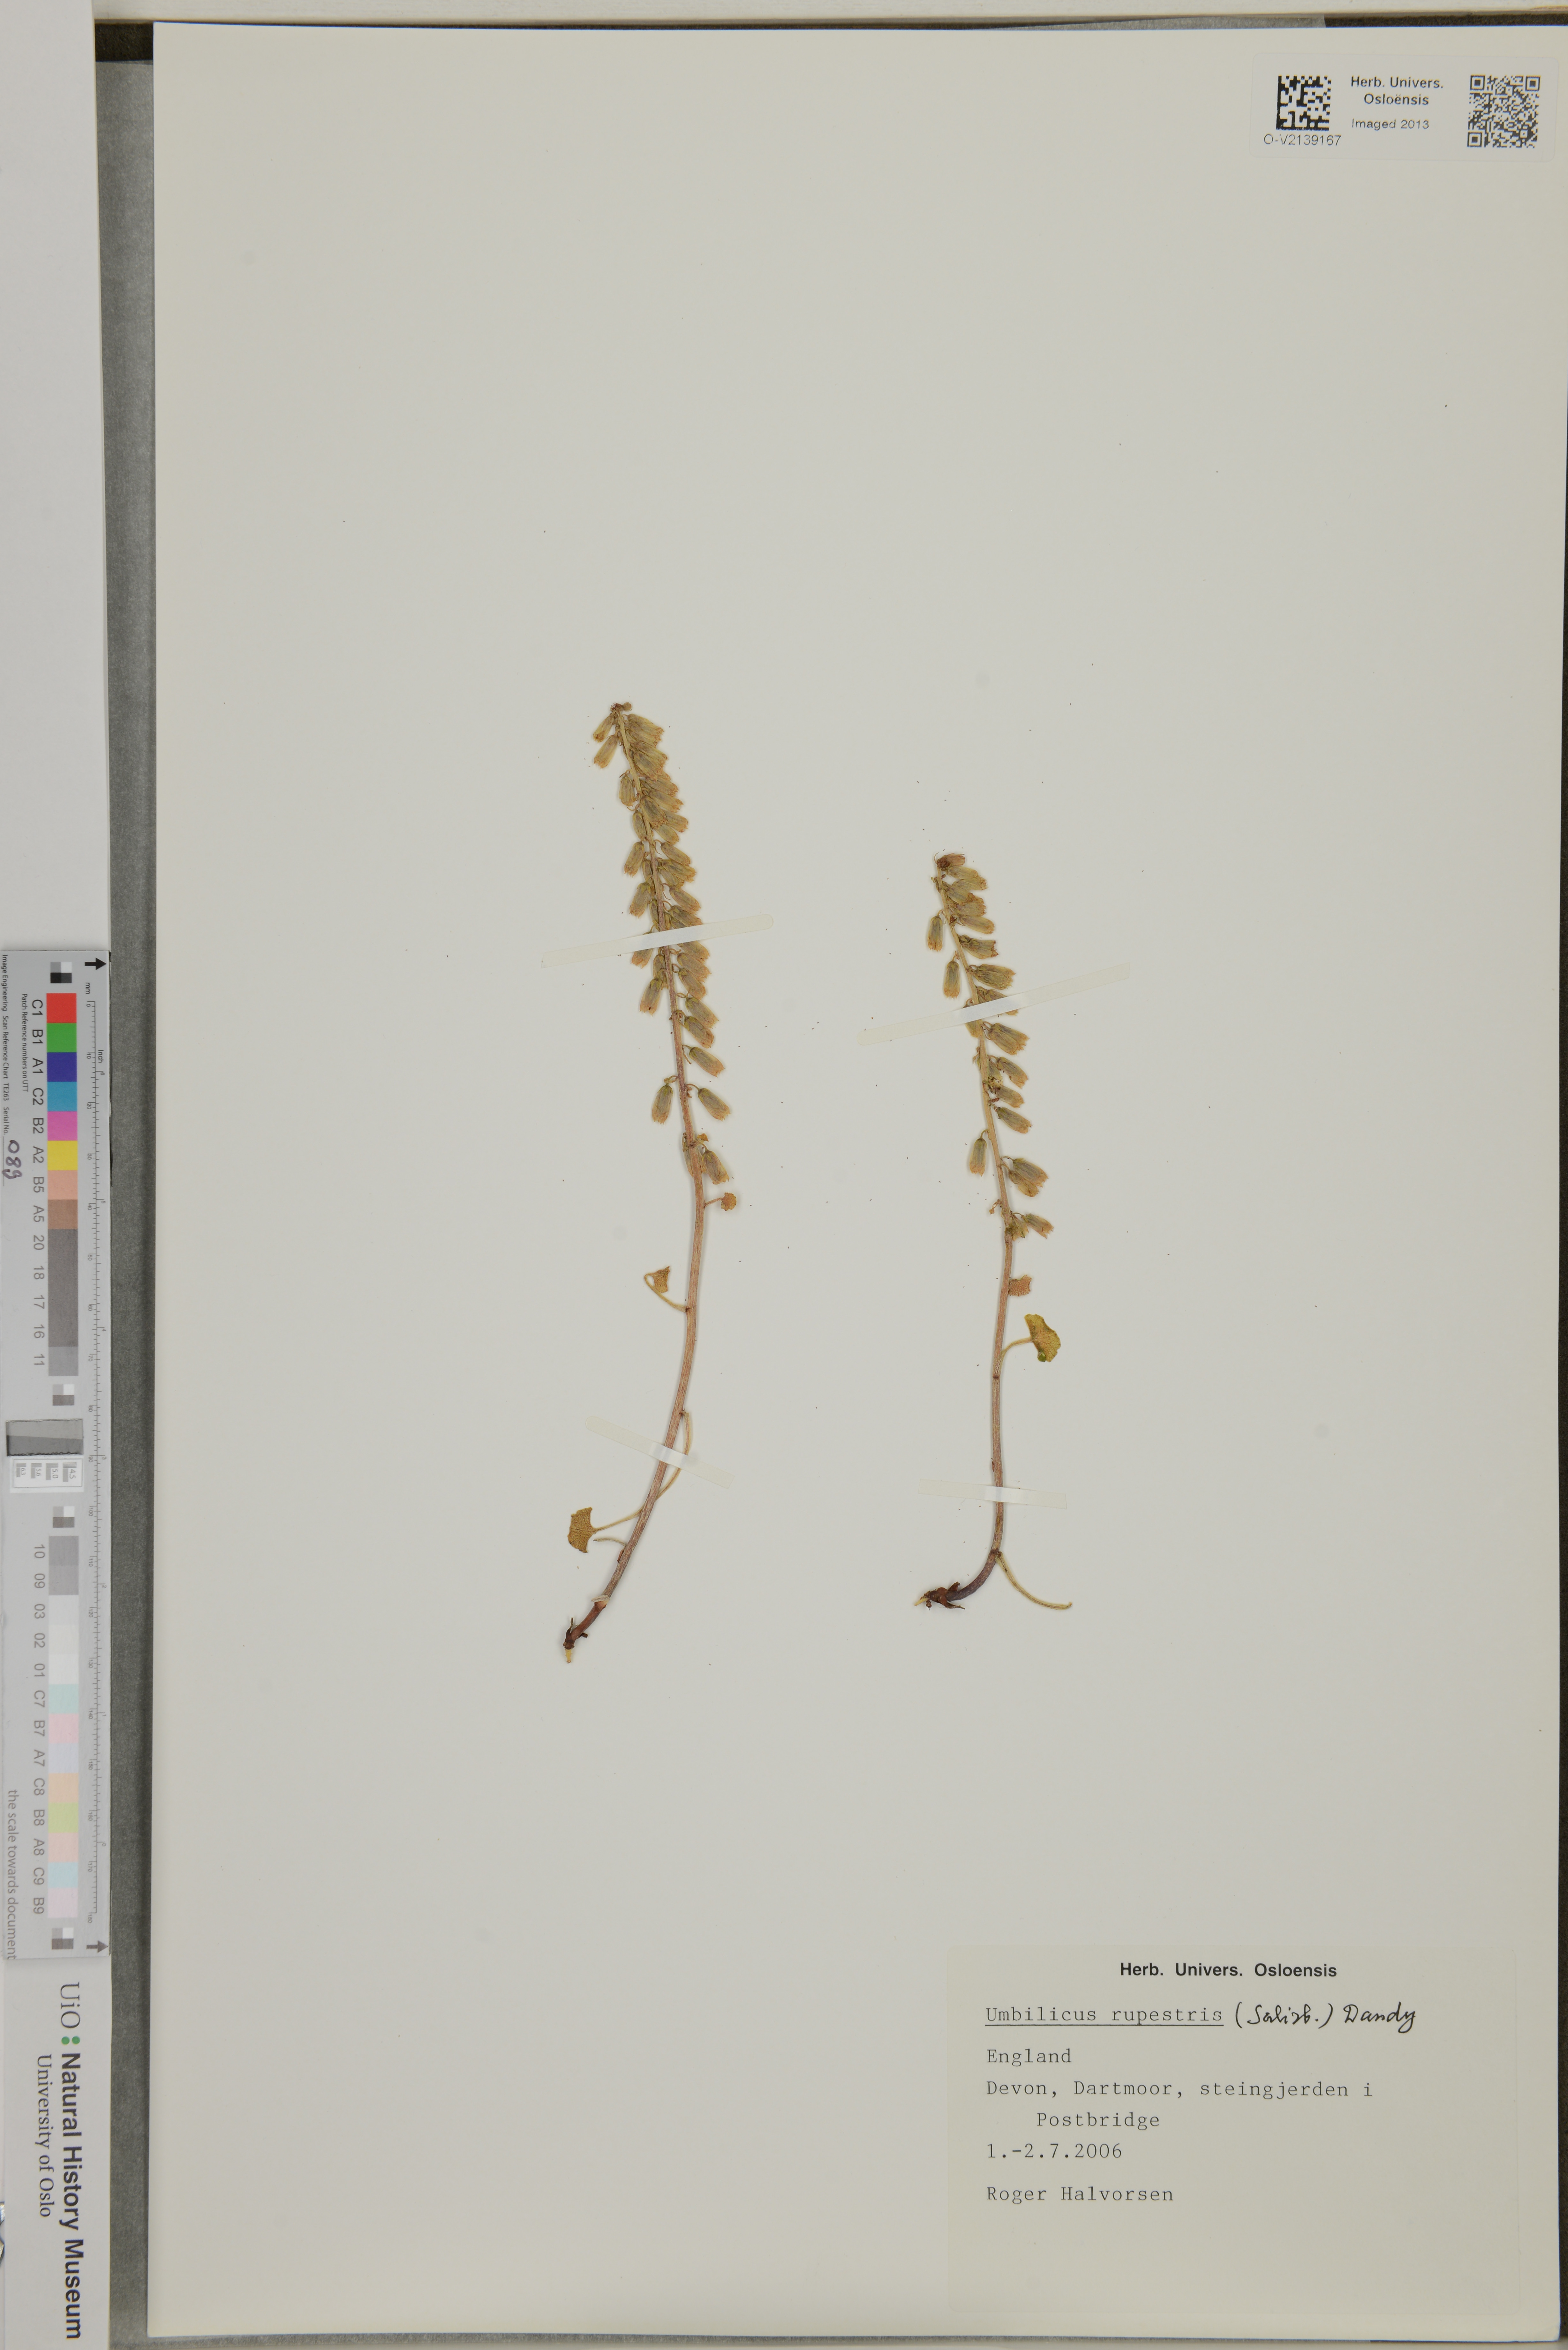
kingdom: Plantae
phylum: Tracheophyta
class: Magnoliopsida
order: Saxifragales
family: Crassulaceae
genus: Umbilicus
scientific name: Umbilicus rupestris
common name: Navelwort
